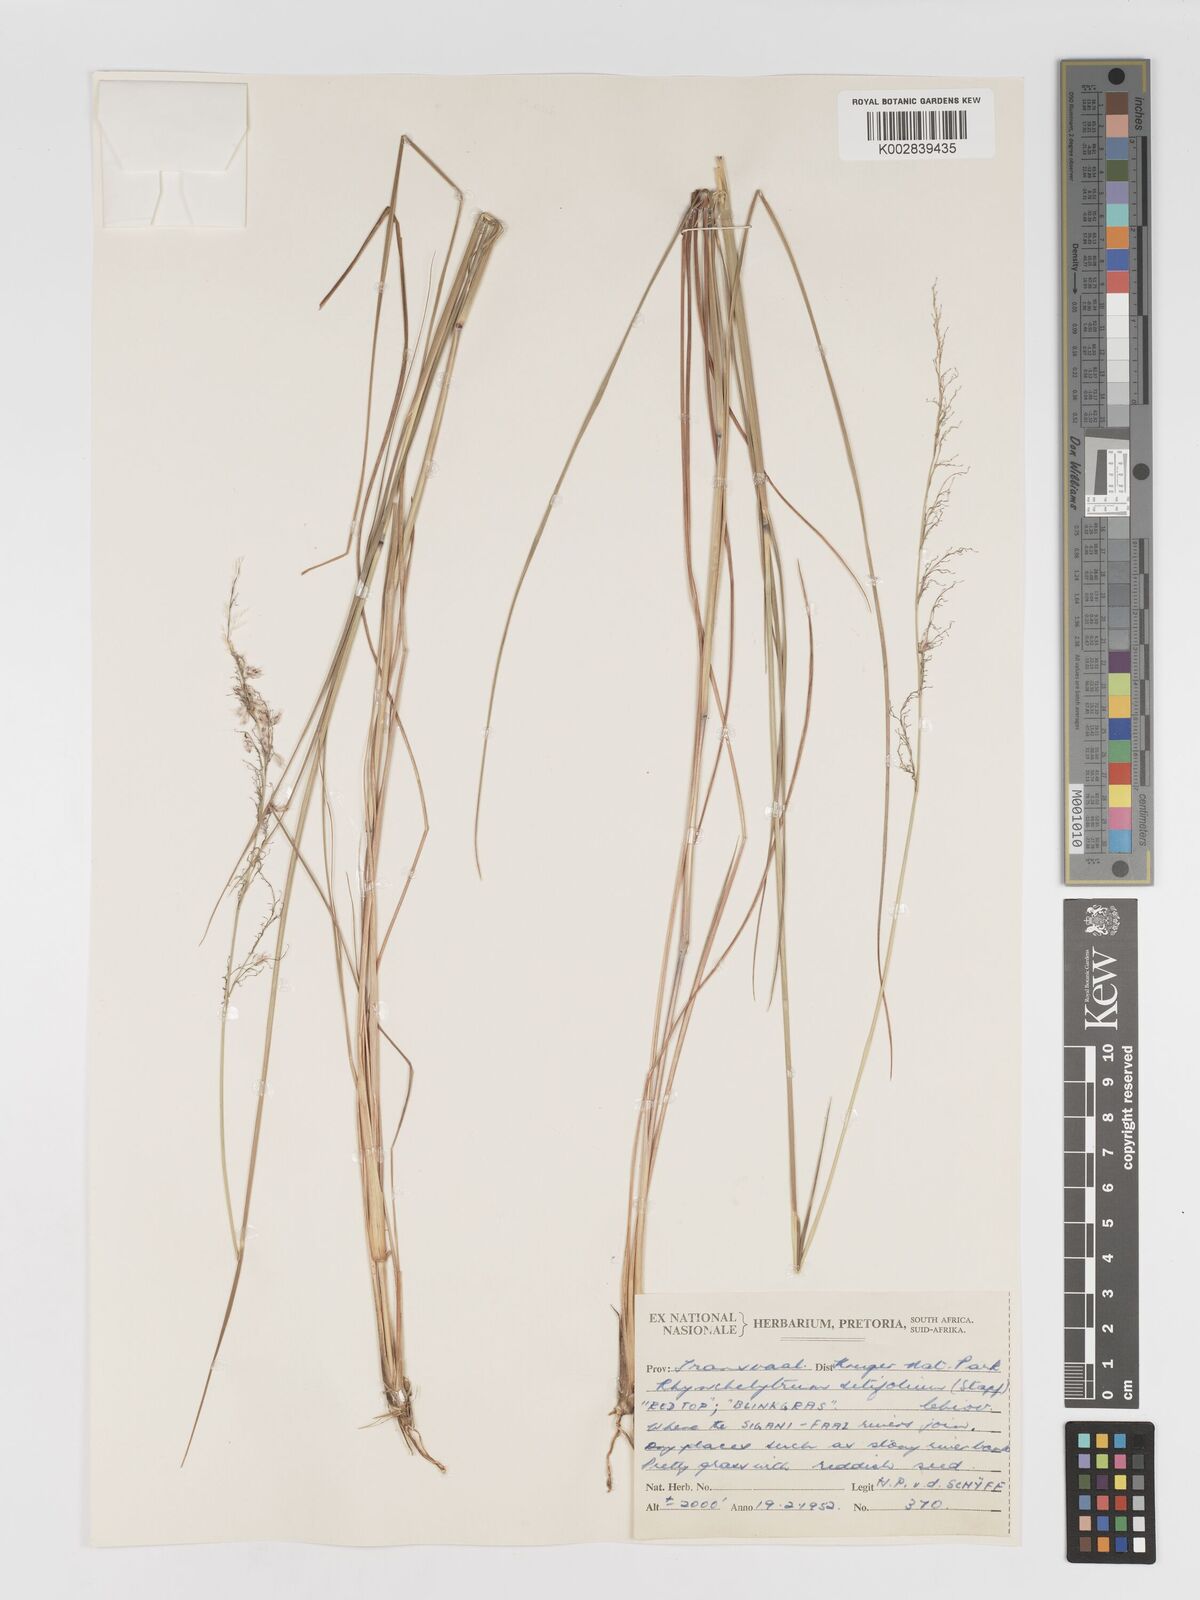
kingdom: Plantae
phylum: Tracheophyta
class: Liliopsida
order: Poales
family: Poaceae
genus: Melinis
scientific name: Melinis nerviglumis
